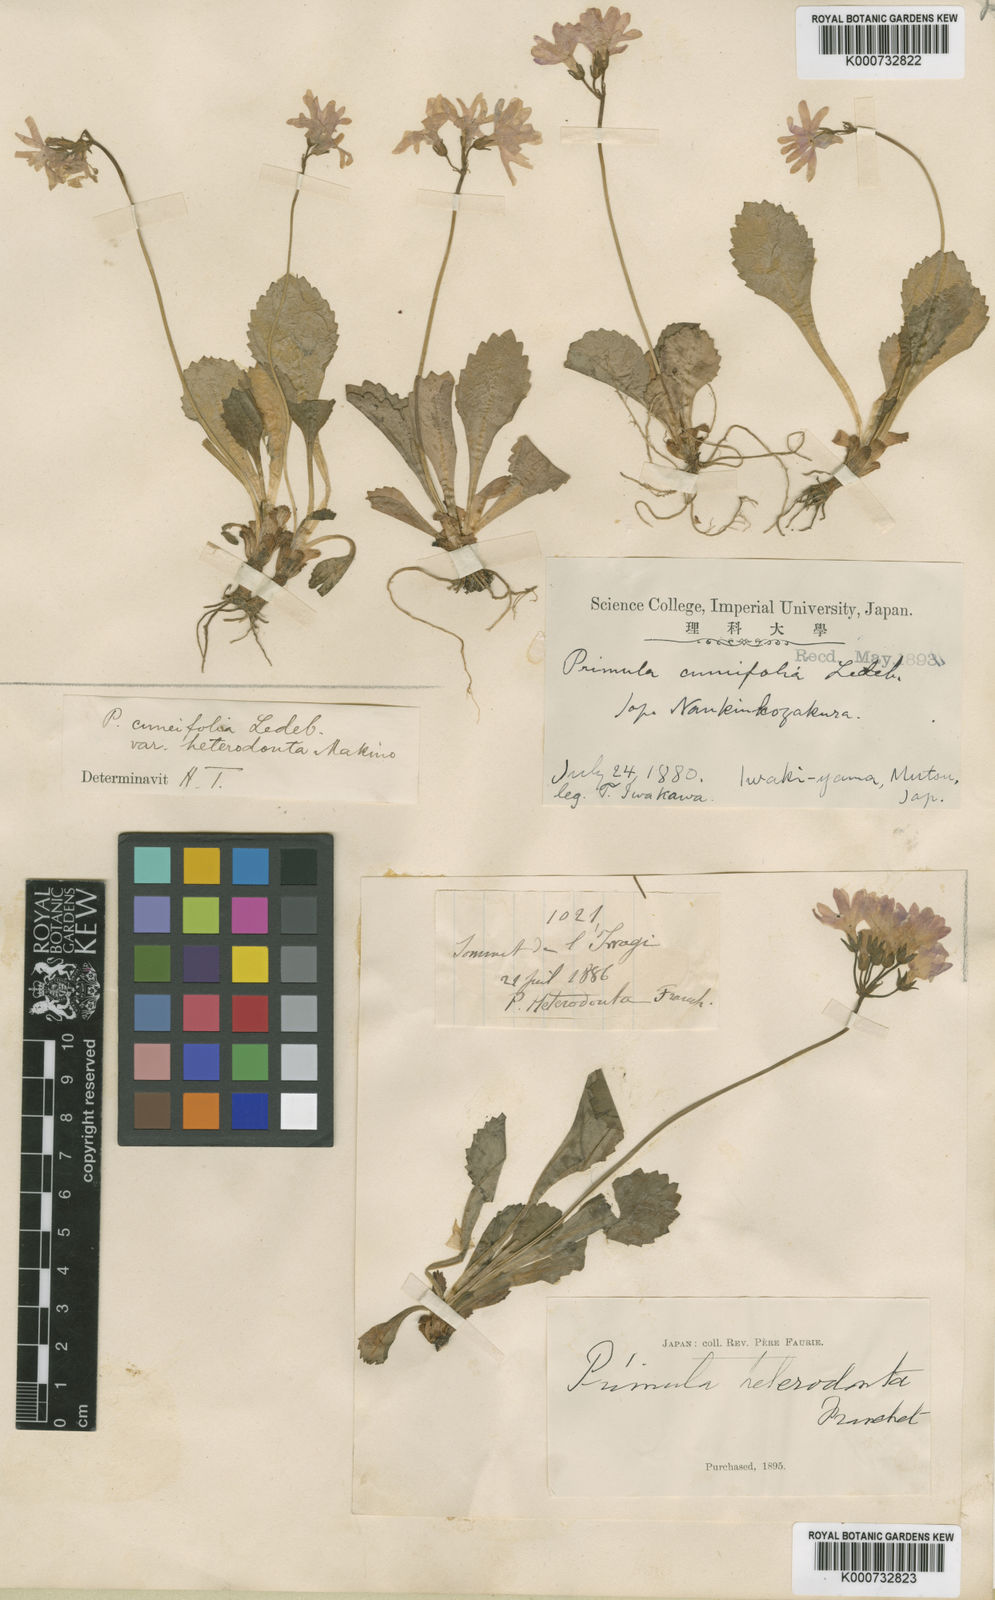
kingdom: Plantae
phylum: Tracheophyta
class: Magnoliopsida
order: Ericales
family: Primulaceae
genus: Primula
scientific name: Primula cuneifolia
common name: Wedge-leaved primrose
